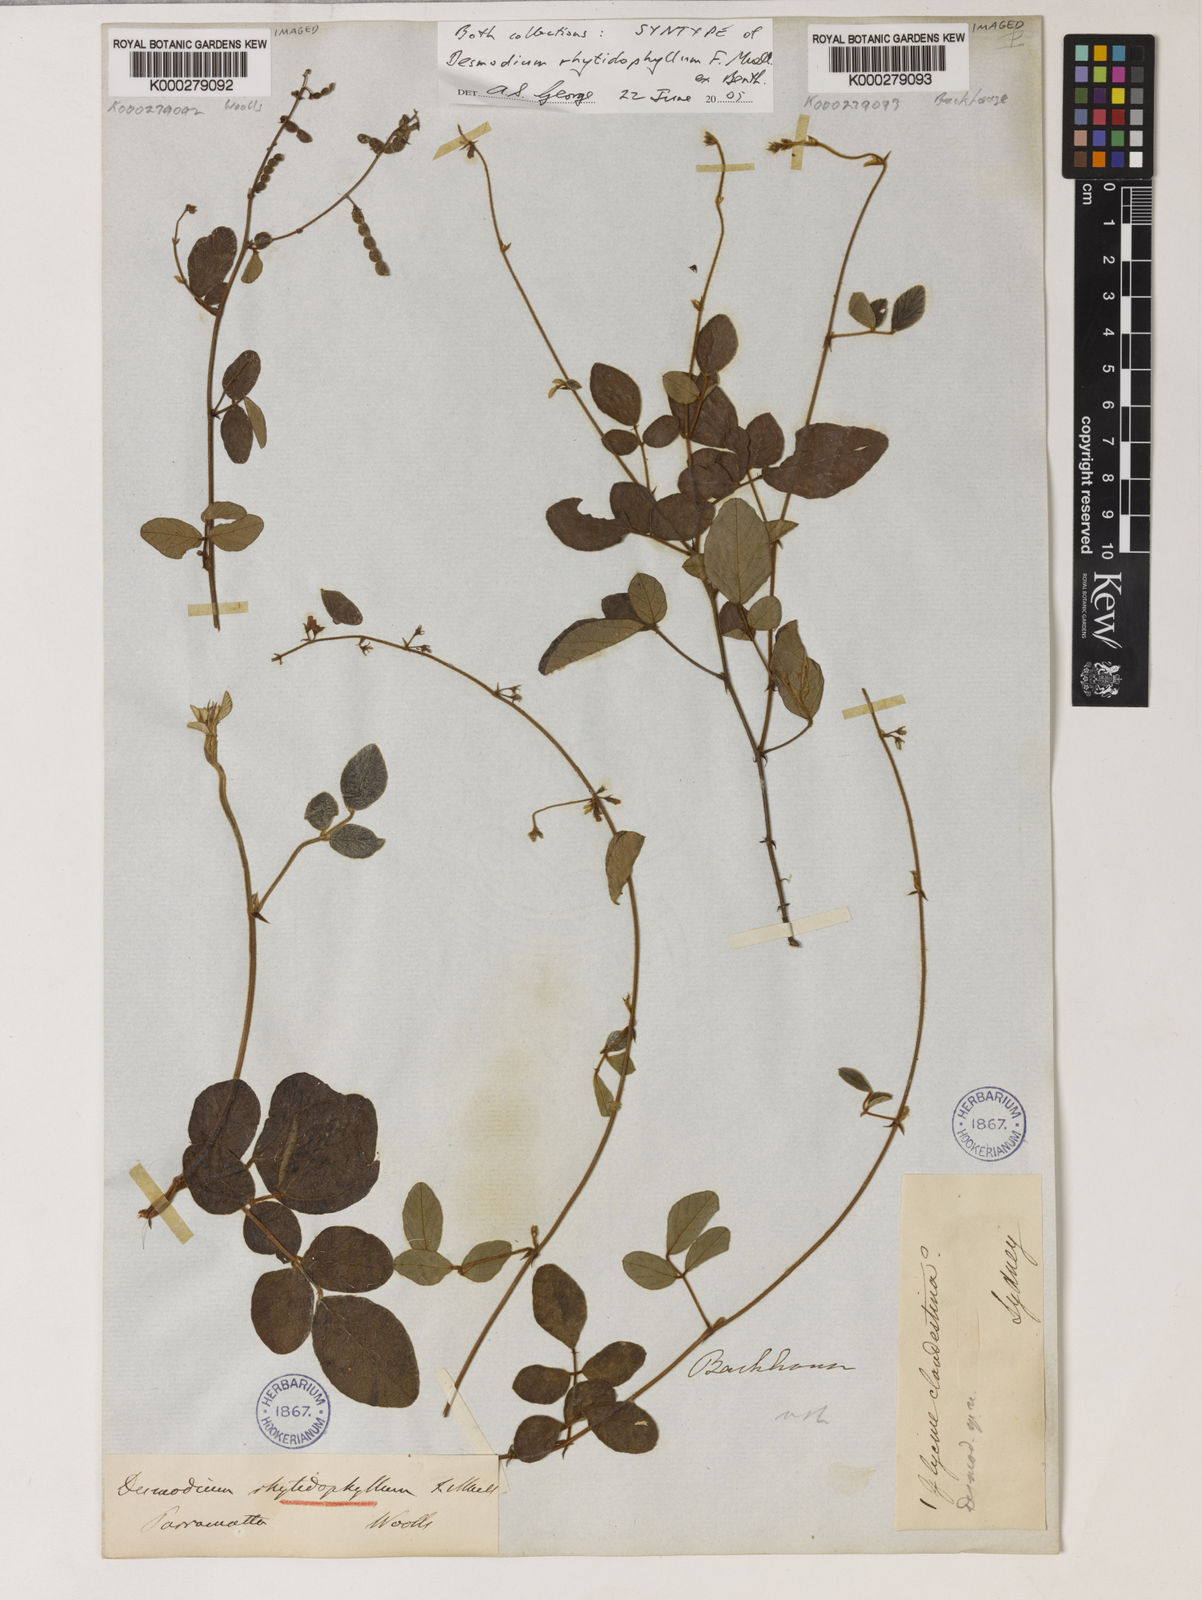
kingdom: Plantae
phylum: Tracheophyta
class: Magnoliopsida
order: Fabales
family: Fabaceae
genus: Maekawaea
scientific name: Maekawaea rhytidophylla
